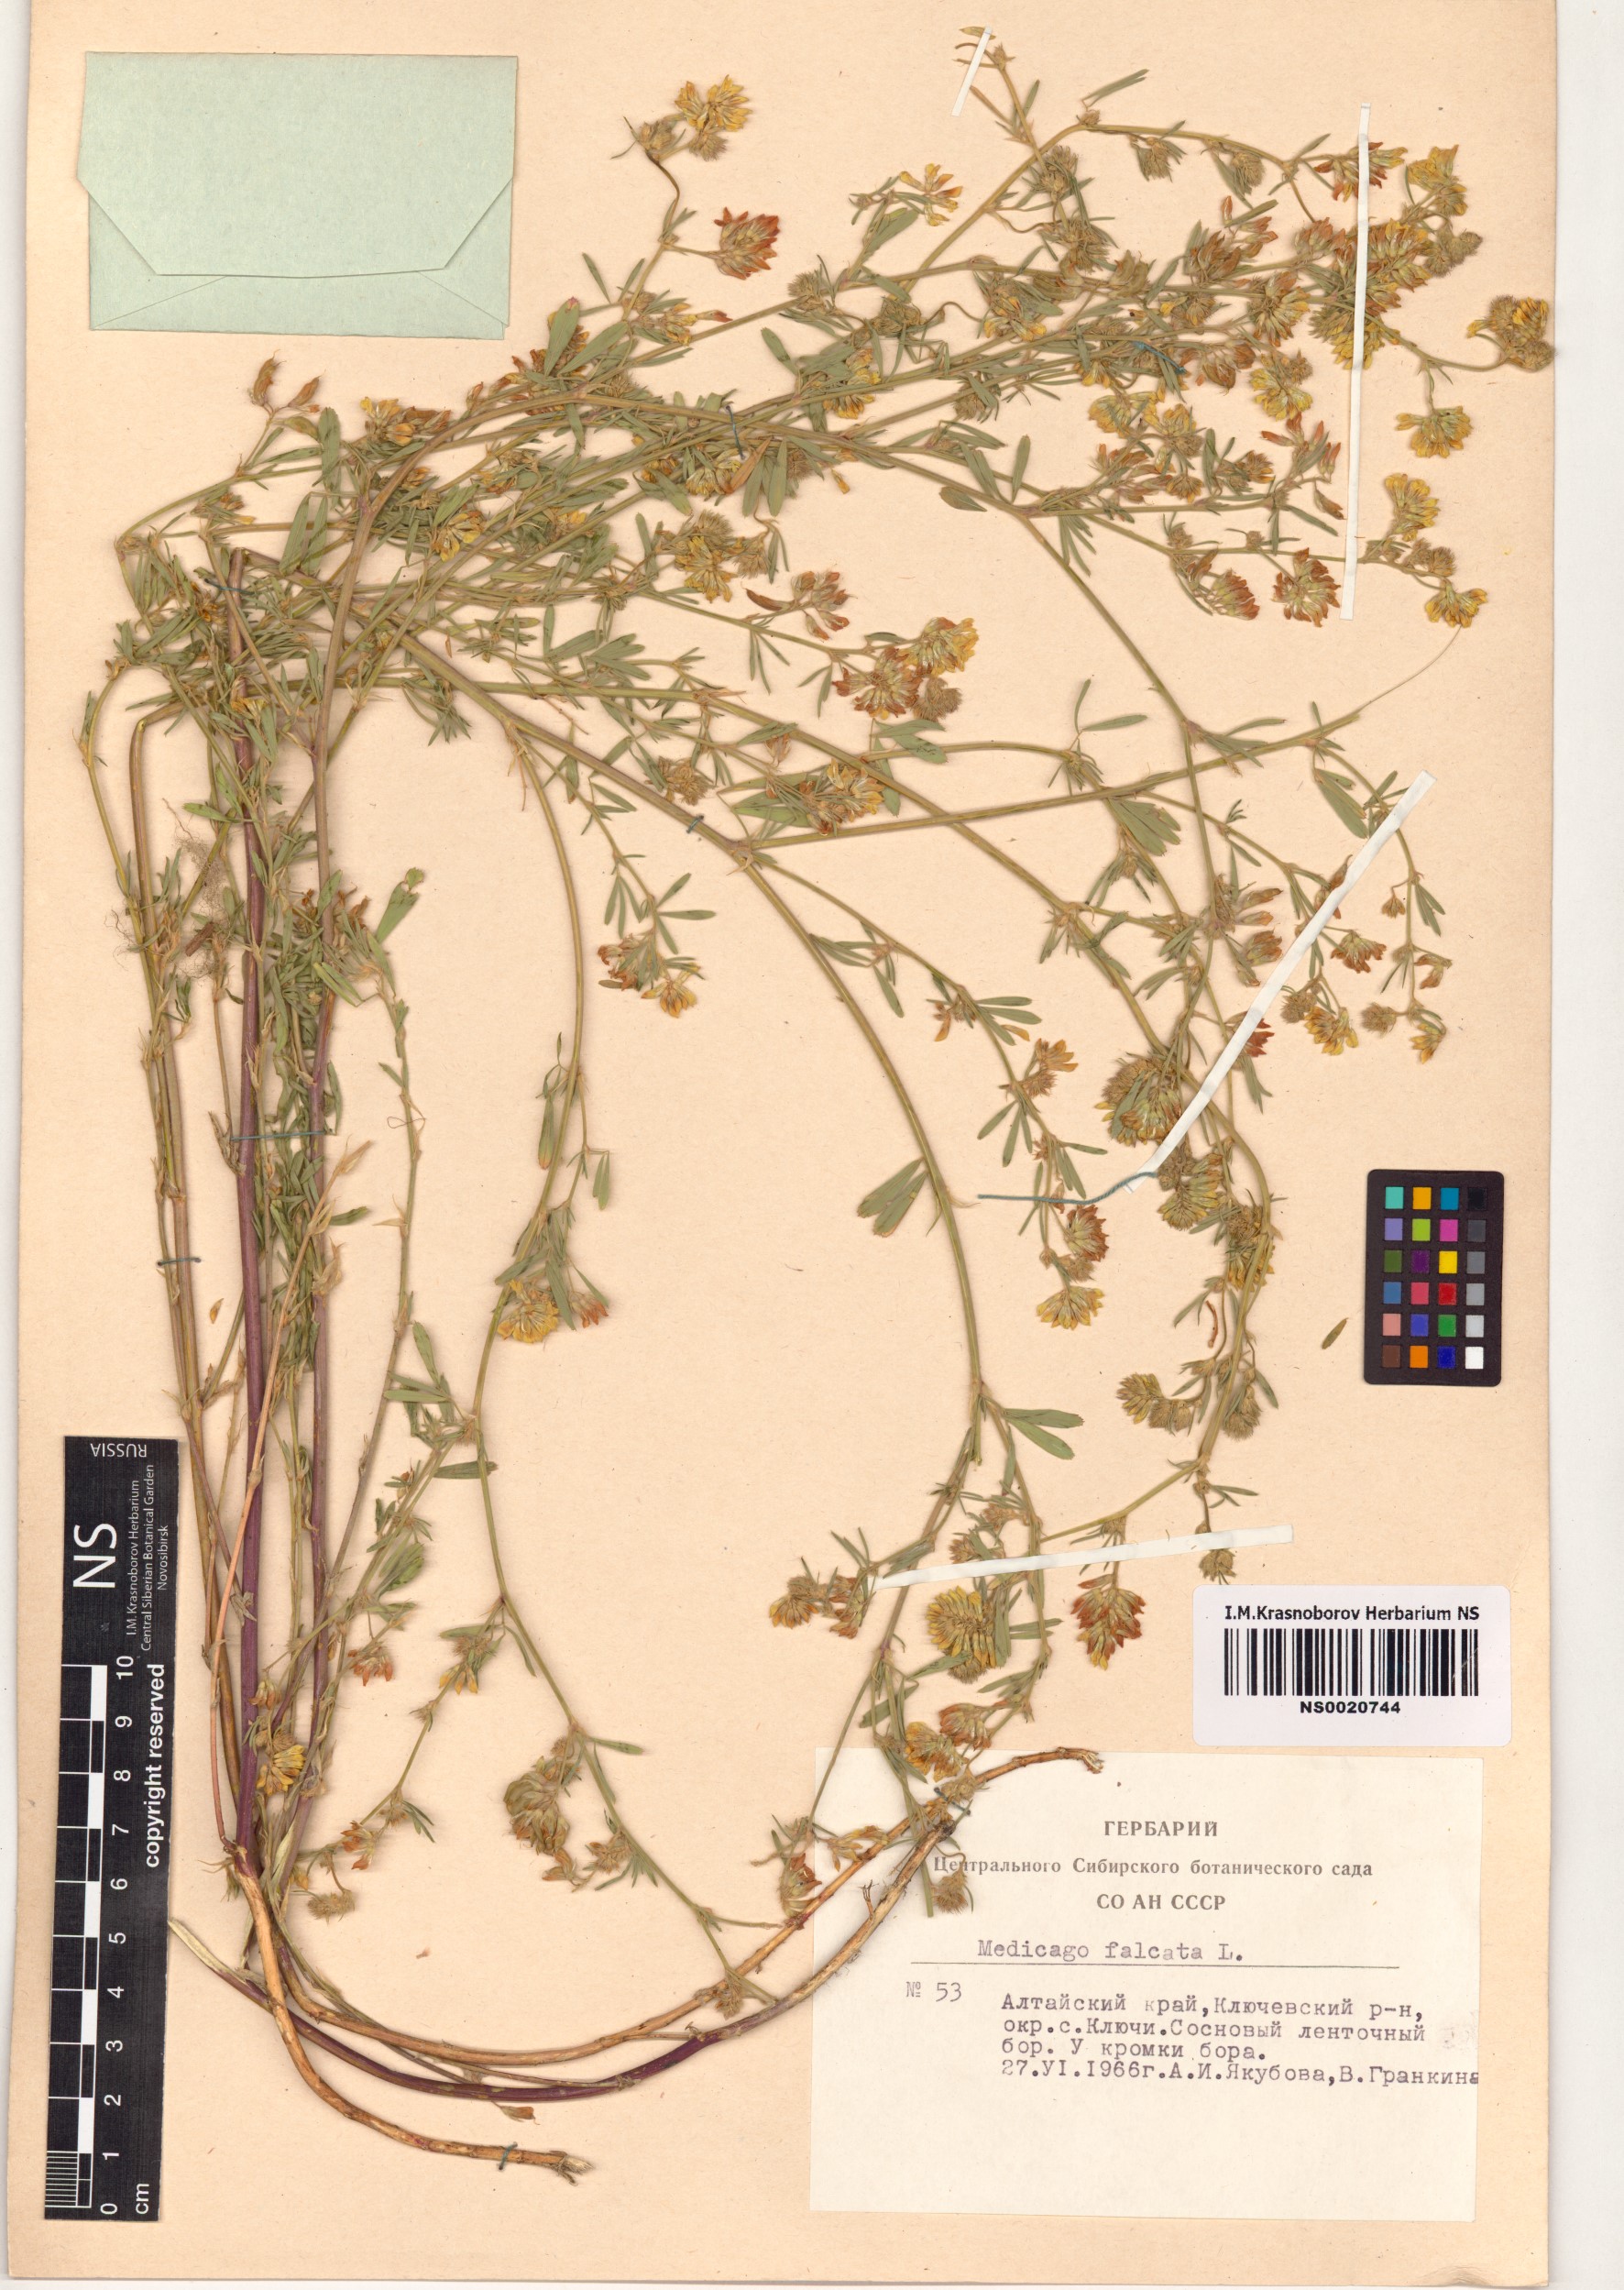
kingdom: Plantae
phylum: Tracheophyta
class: Magnoliopsida
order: Fabales
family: Fabaceae
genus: Medicago
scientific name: Medicago falcata
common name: Sickle medick
